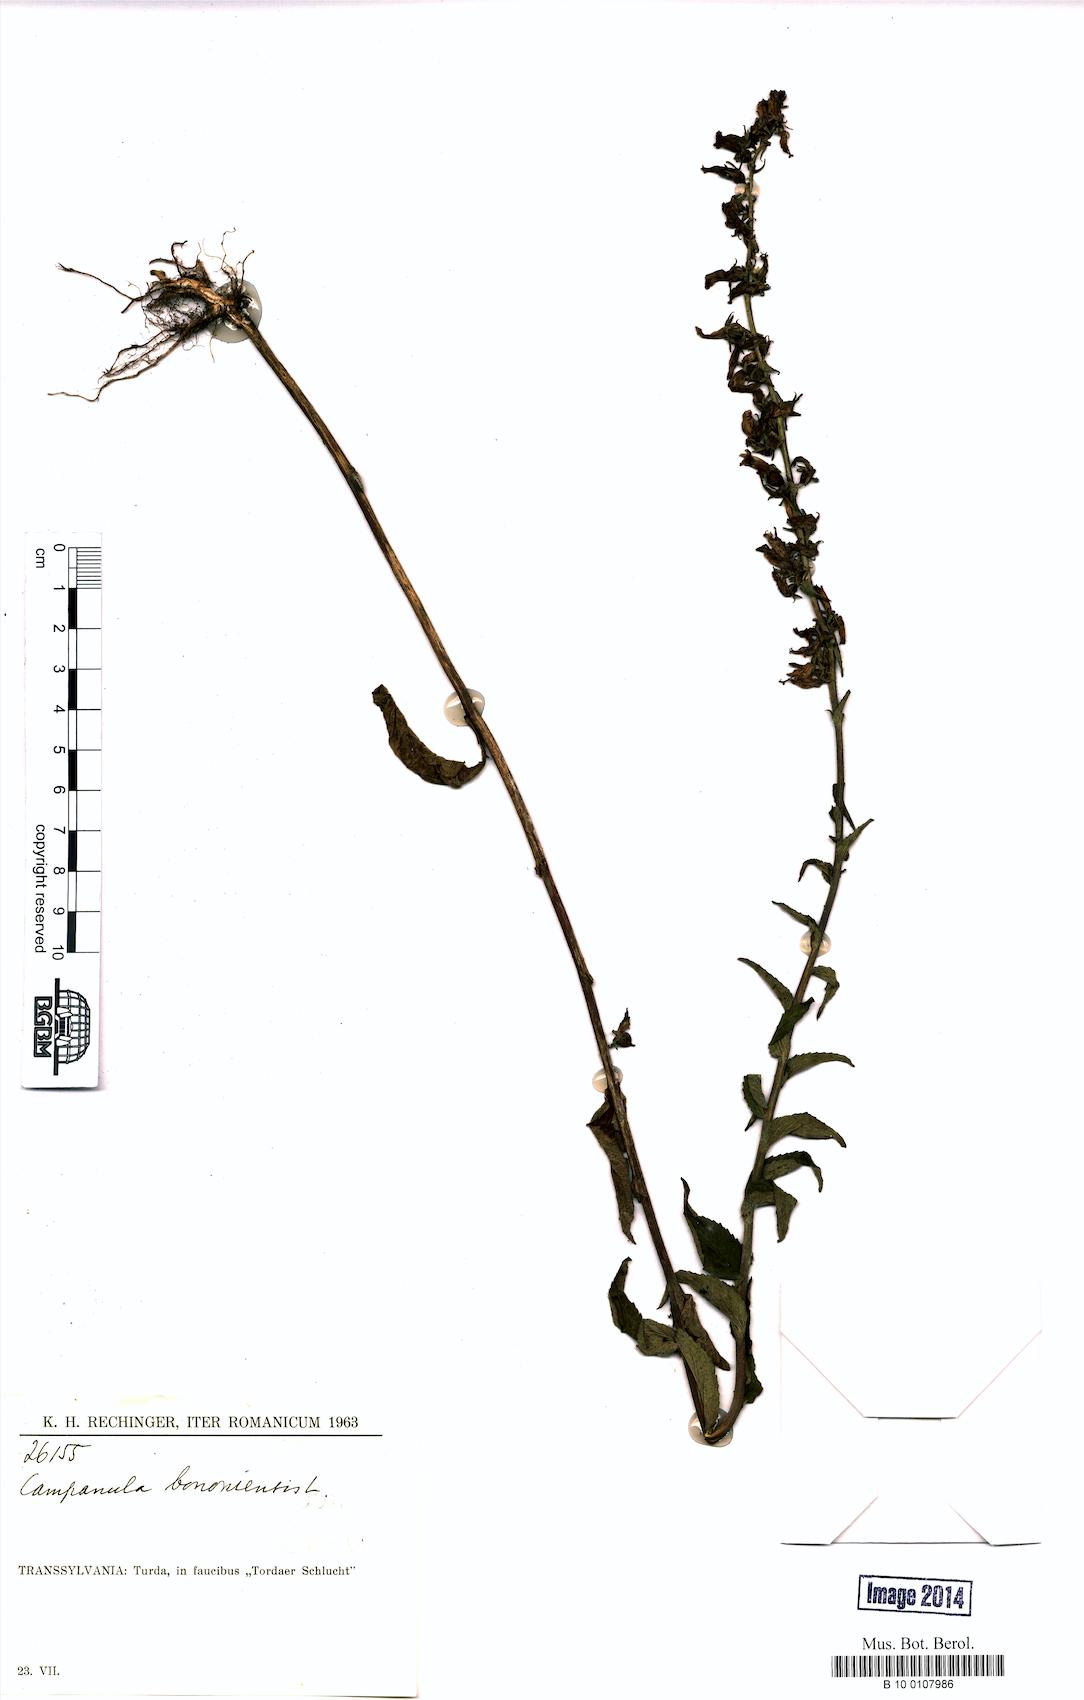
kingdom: Plantae
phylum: Tracheophyta
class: Magnoliopsida
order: Asterales
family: Campanulaceae
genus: Campanula
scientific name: Campanula bononiensis
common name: Pale bellflower
